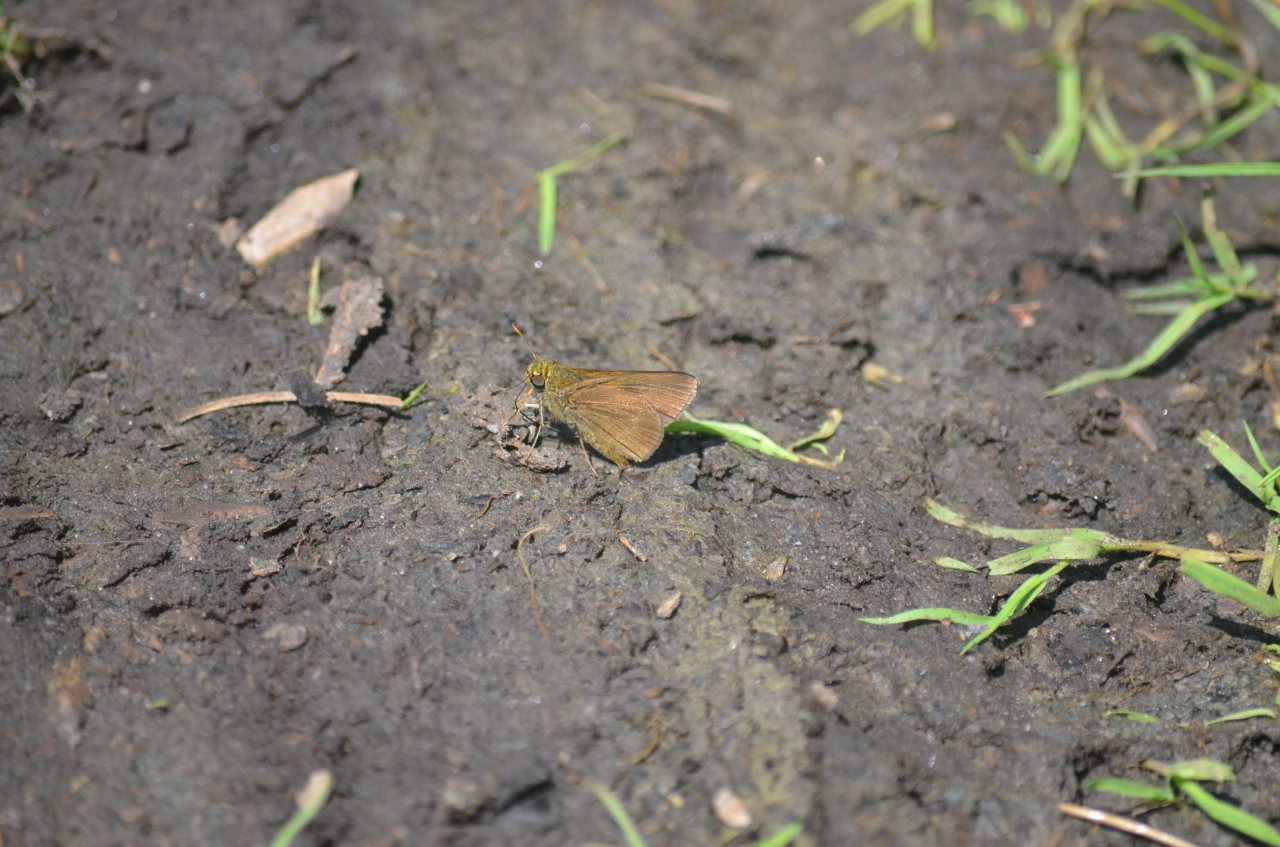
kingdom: Animalia
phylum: Arthropoda
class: Insecta
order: Lepidoptera
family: Hesperiidae
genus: Euphyes
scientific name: Euphyes vestris
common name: Dun Skipper
